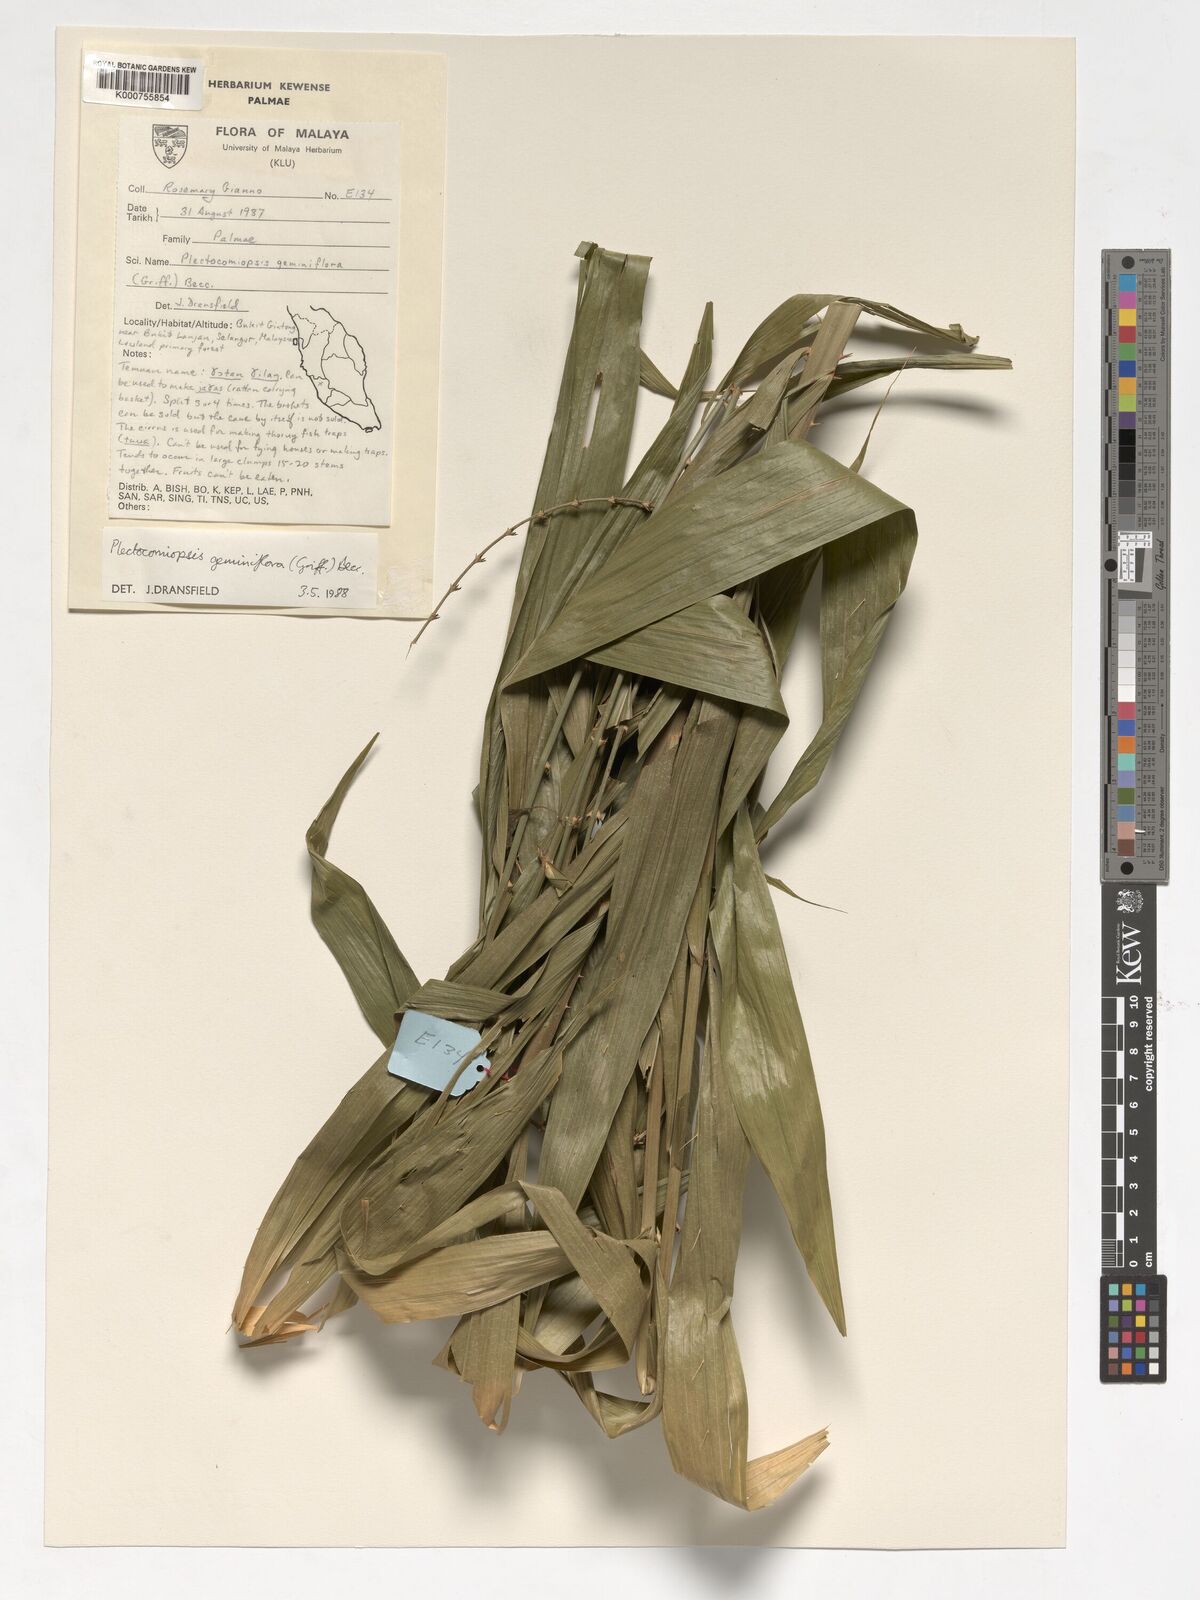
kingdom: Plantae
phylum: Tracheophyta
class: Liliopsida
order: Arecales
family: Arecaceae
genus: Plectocomiopsis
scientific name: Plectocomiopsis geminiflora
